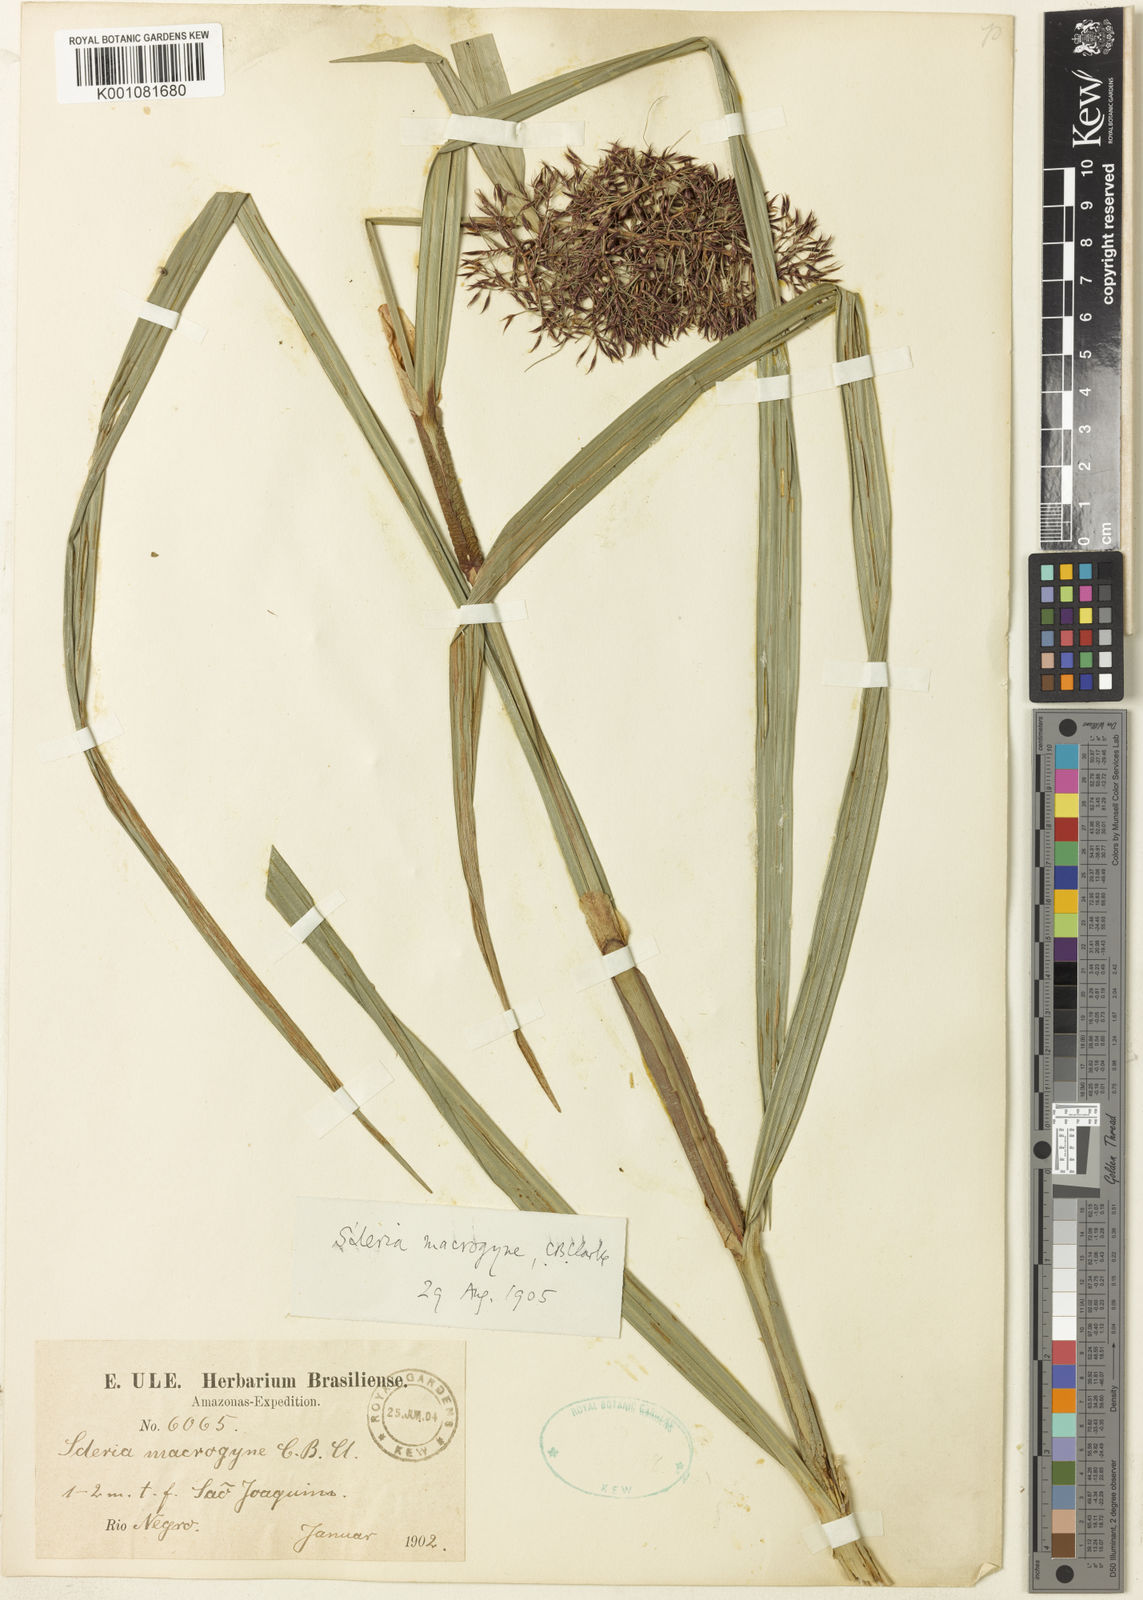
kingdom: Plantae
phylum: Tracheophyta
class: Liliopsida
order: Poales
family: Cyperaceae
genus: Scleria
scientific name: Scleria macrogyne
